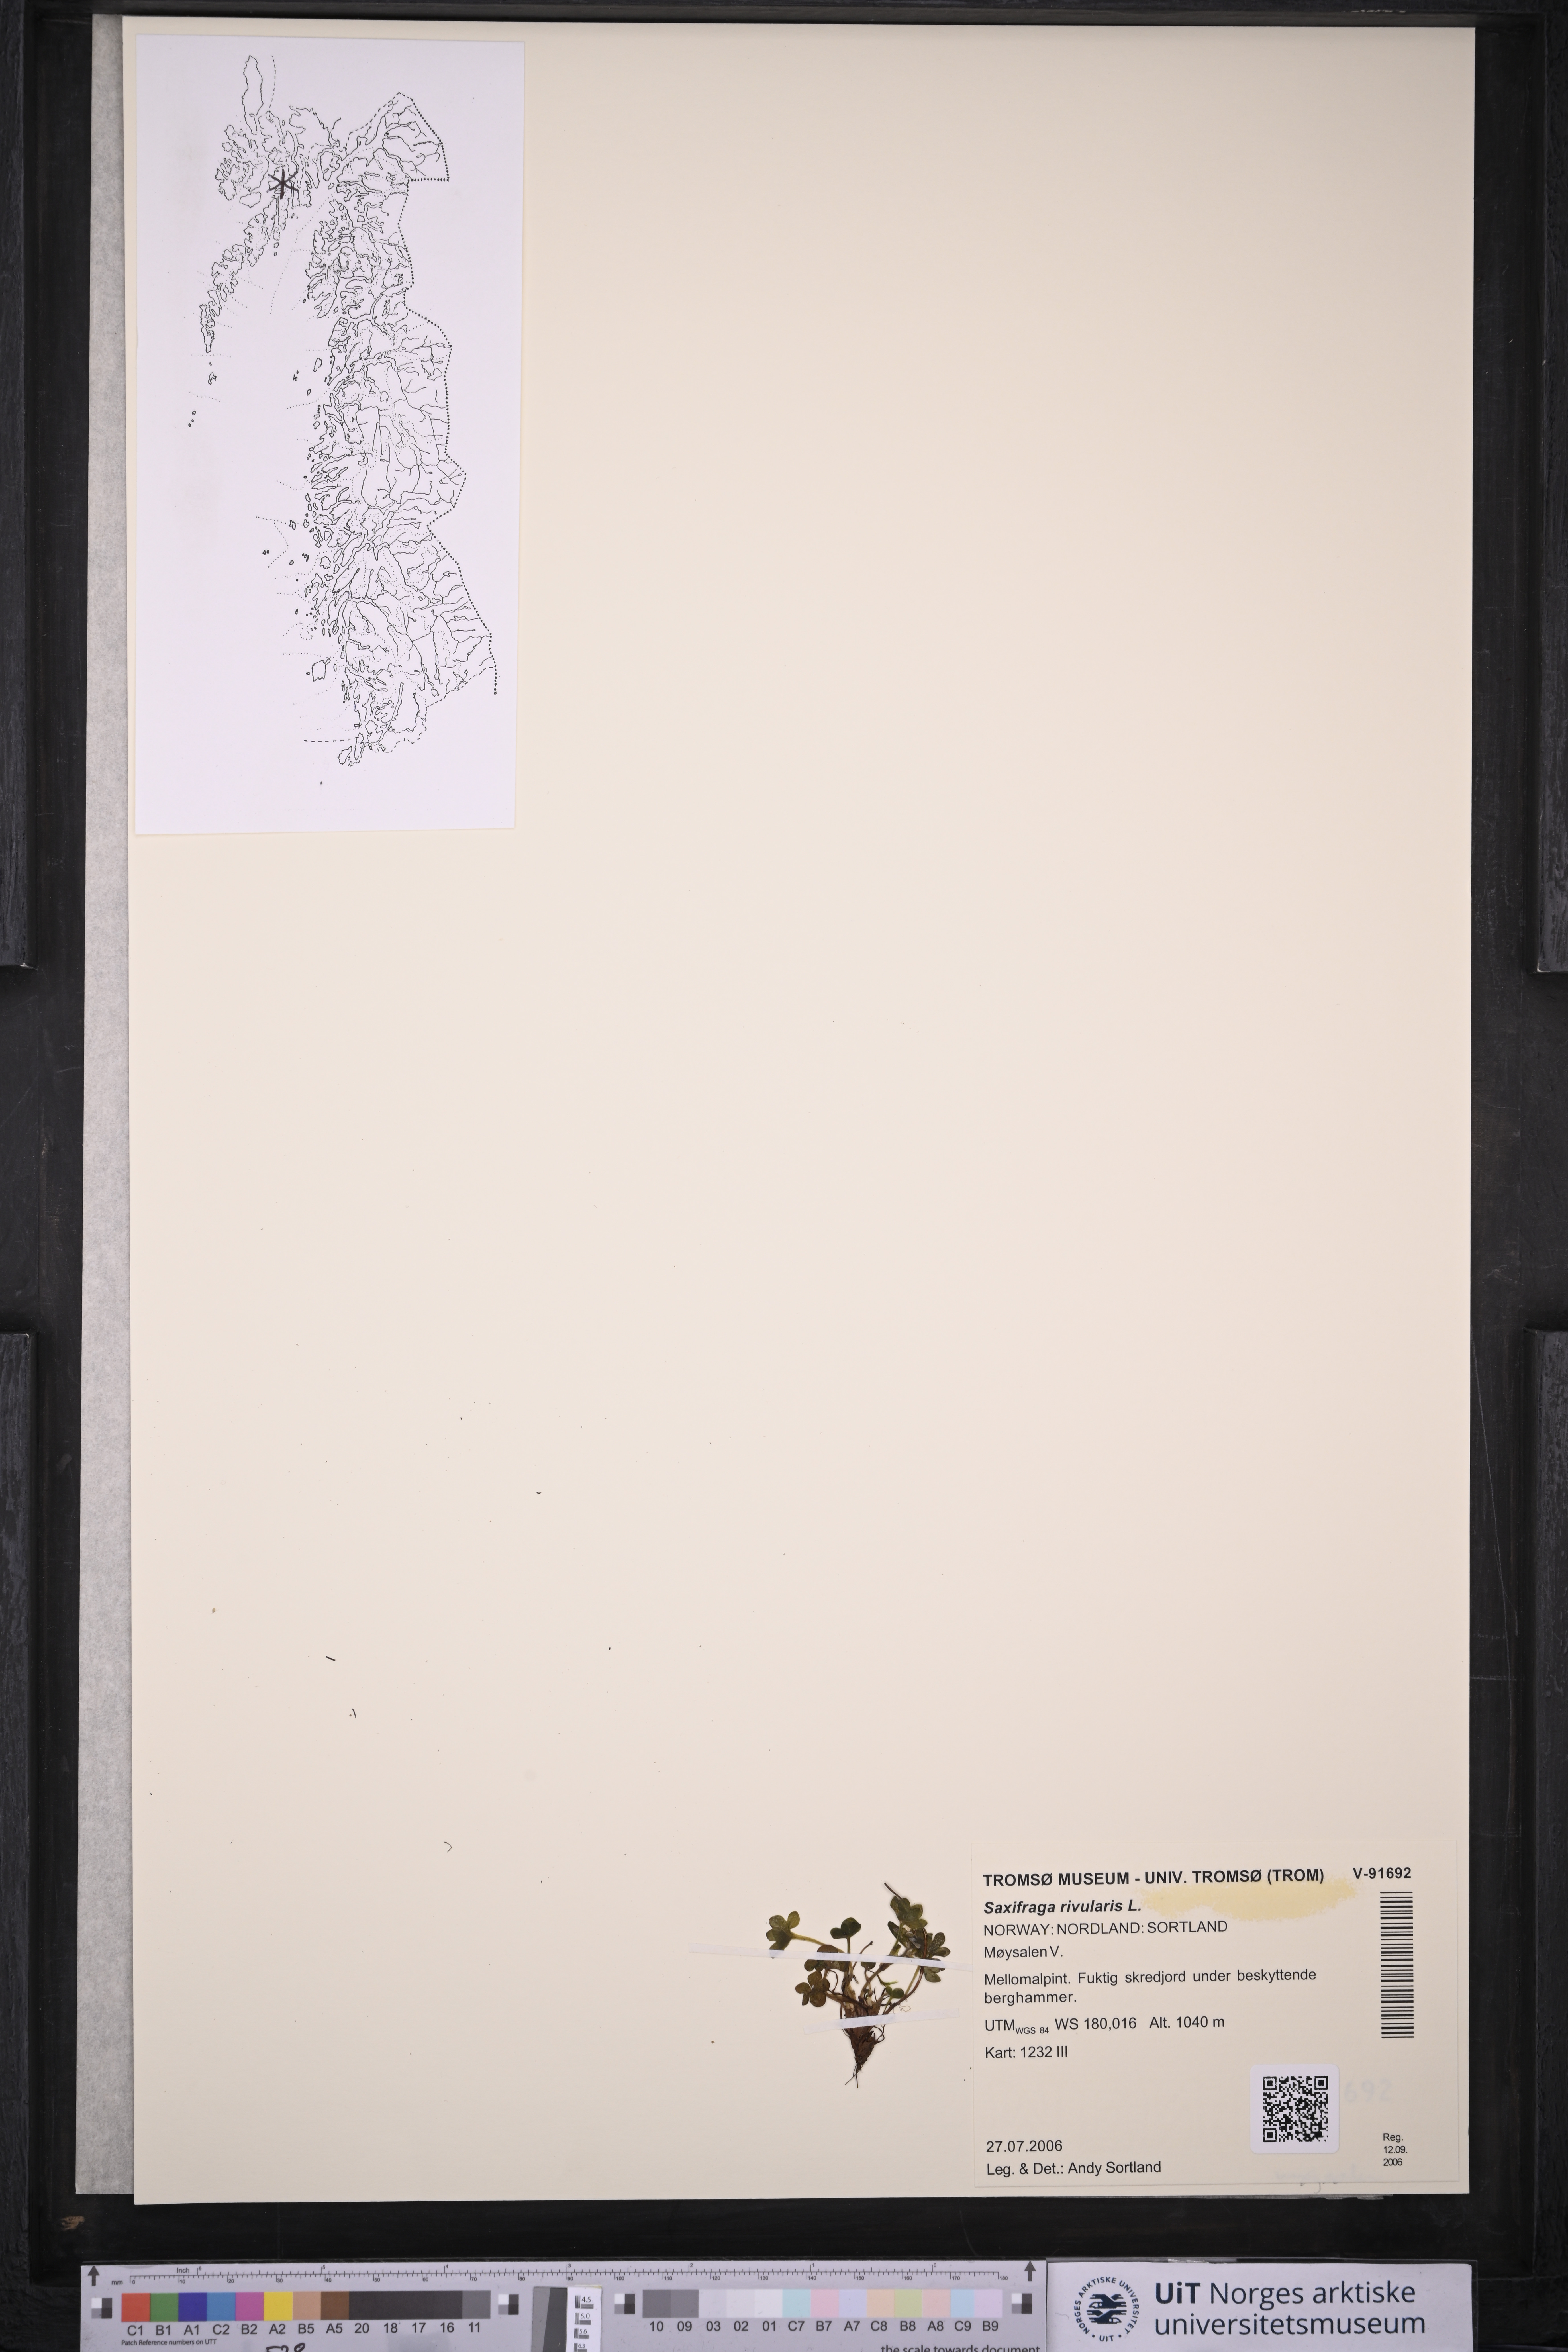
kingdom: Plantae
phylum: Tracheophyta
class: Magnoliopsida
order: Saxifragales
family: Saxifragaceae
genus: Saxifraga
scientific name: Saxifraga rivularis
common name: Highland saxifrage
